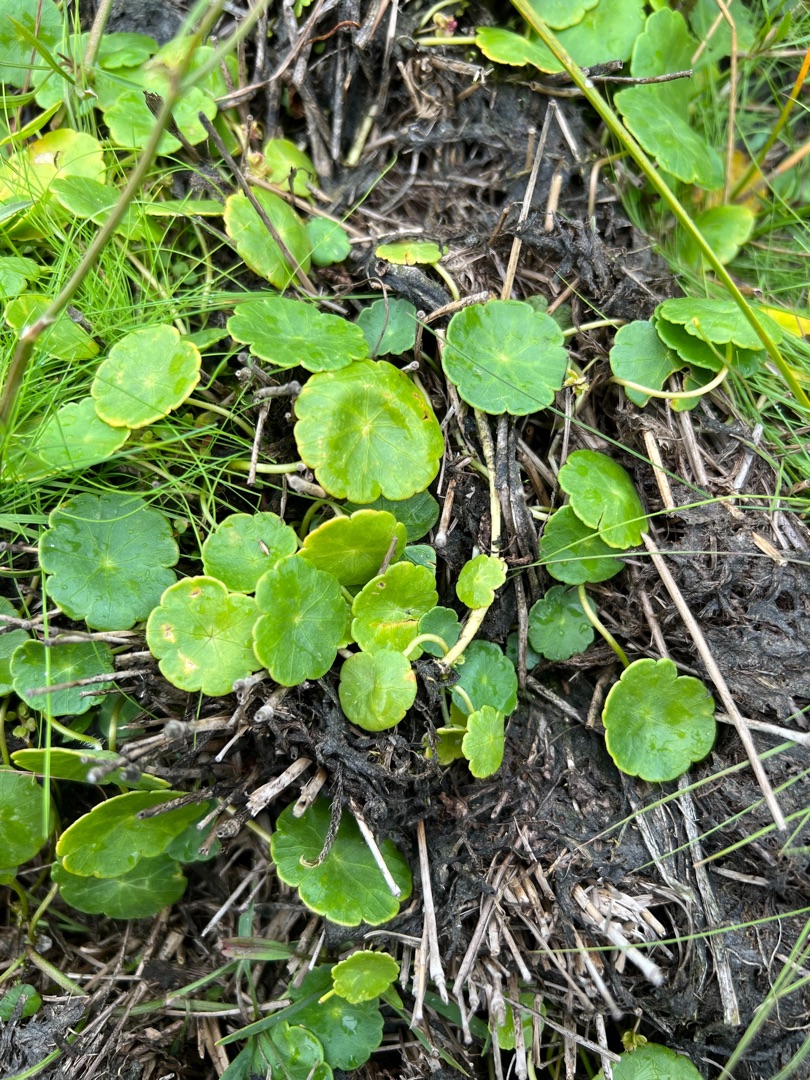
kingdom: Plantae
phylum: Tracheophyta
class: Magnoliopsida
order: Apiales
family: Araliaceae
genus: Hydrocotyle
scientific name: Hydrocotyle vulgaris
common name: Vandnavle
